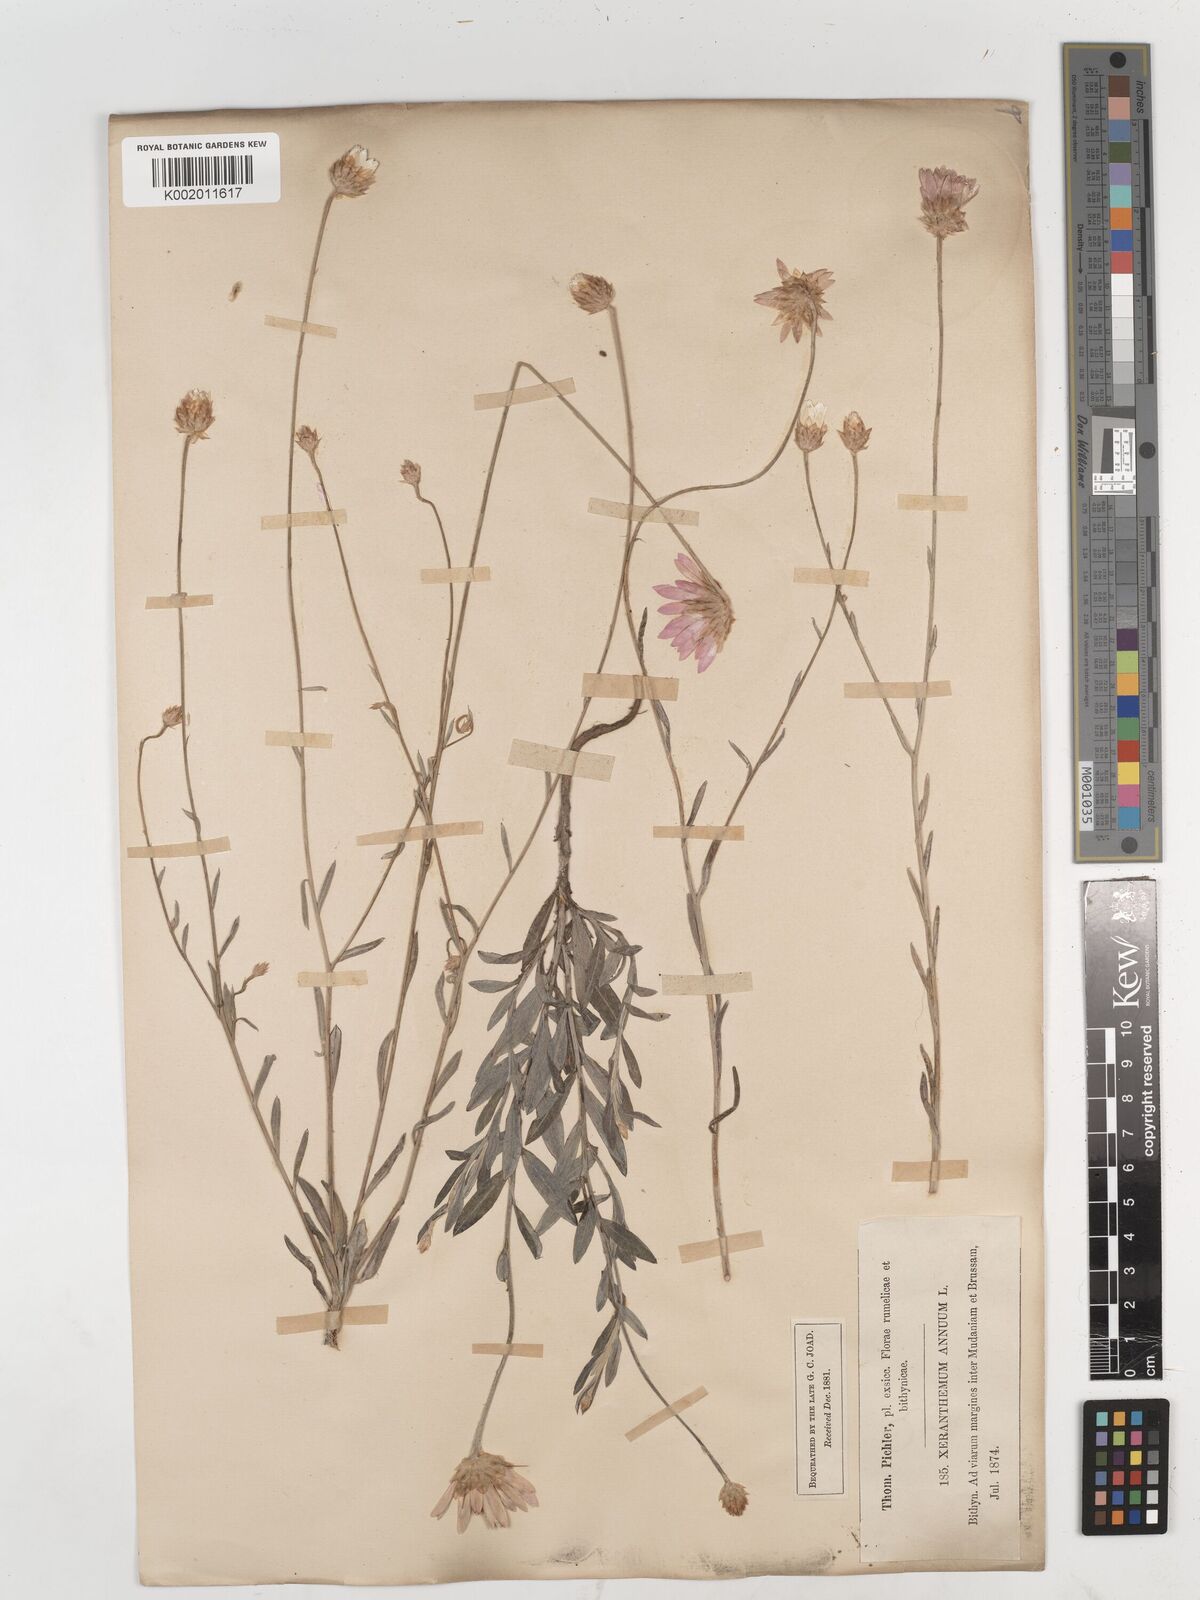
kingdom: Plantae
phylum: Tracheophyta
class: Magnoliopsida
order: Asterales
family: Asteraceae
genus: Xeranthemum
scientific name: Xeranthemum annuum
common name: Immortelle
